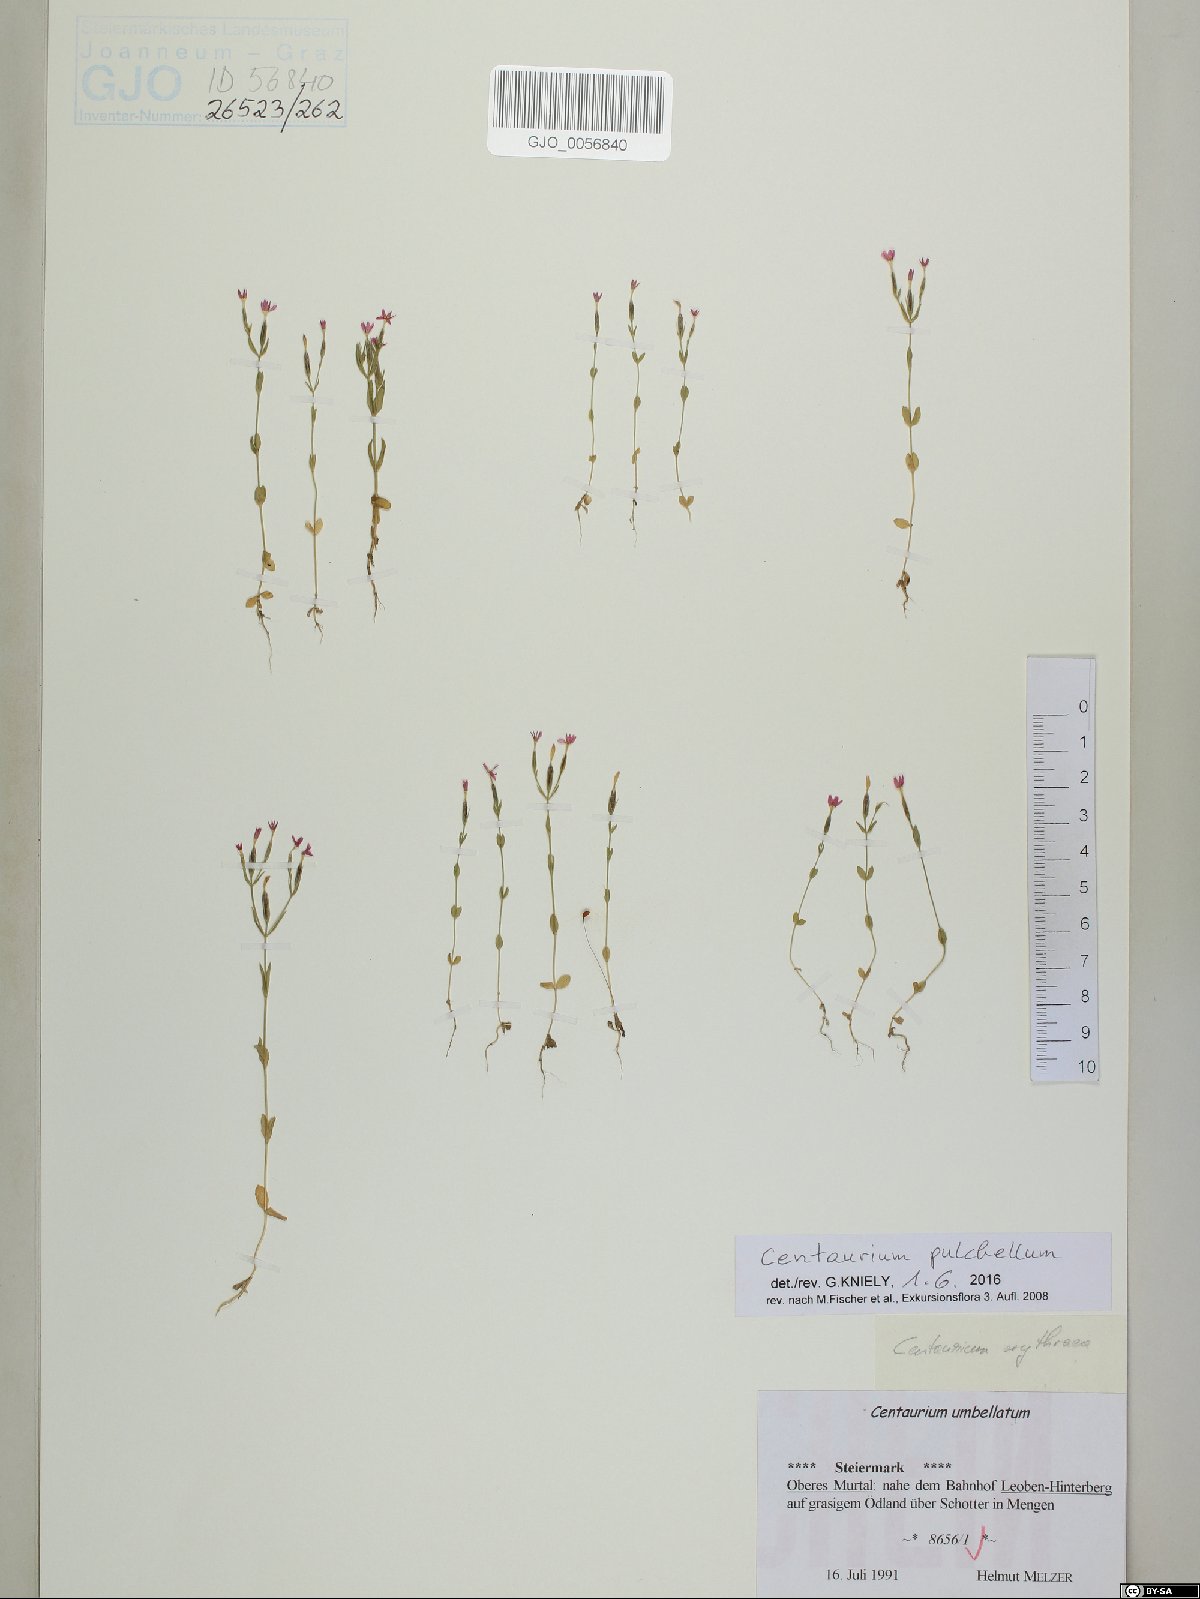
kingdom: Plantae
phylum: Tracheophyta
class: Magnoliopsida
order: Gentianales
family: Gentianaceae
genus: Centaurium
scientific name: Centaurium pulchellum
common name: Lesser centaury
